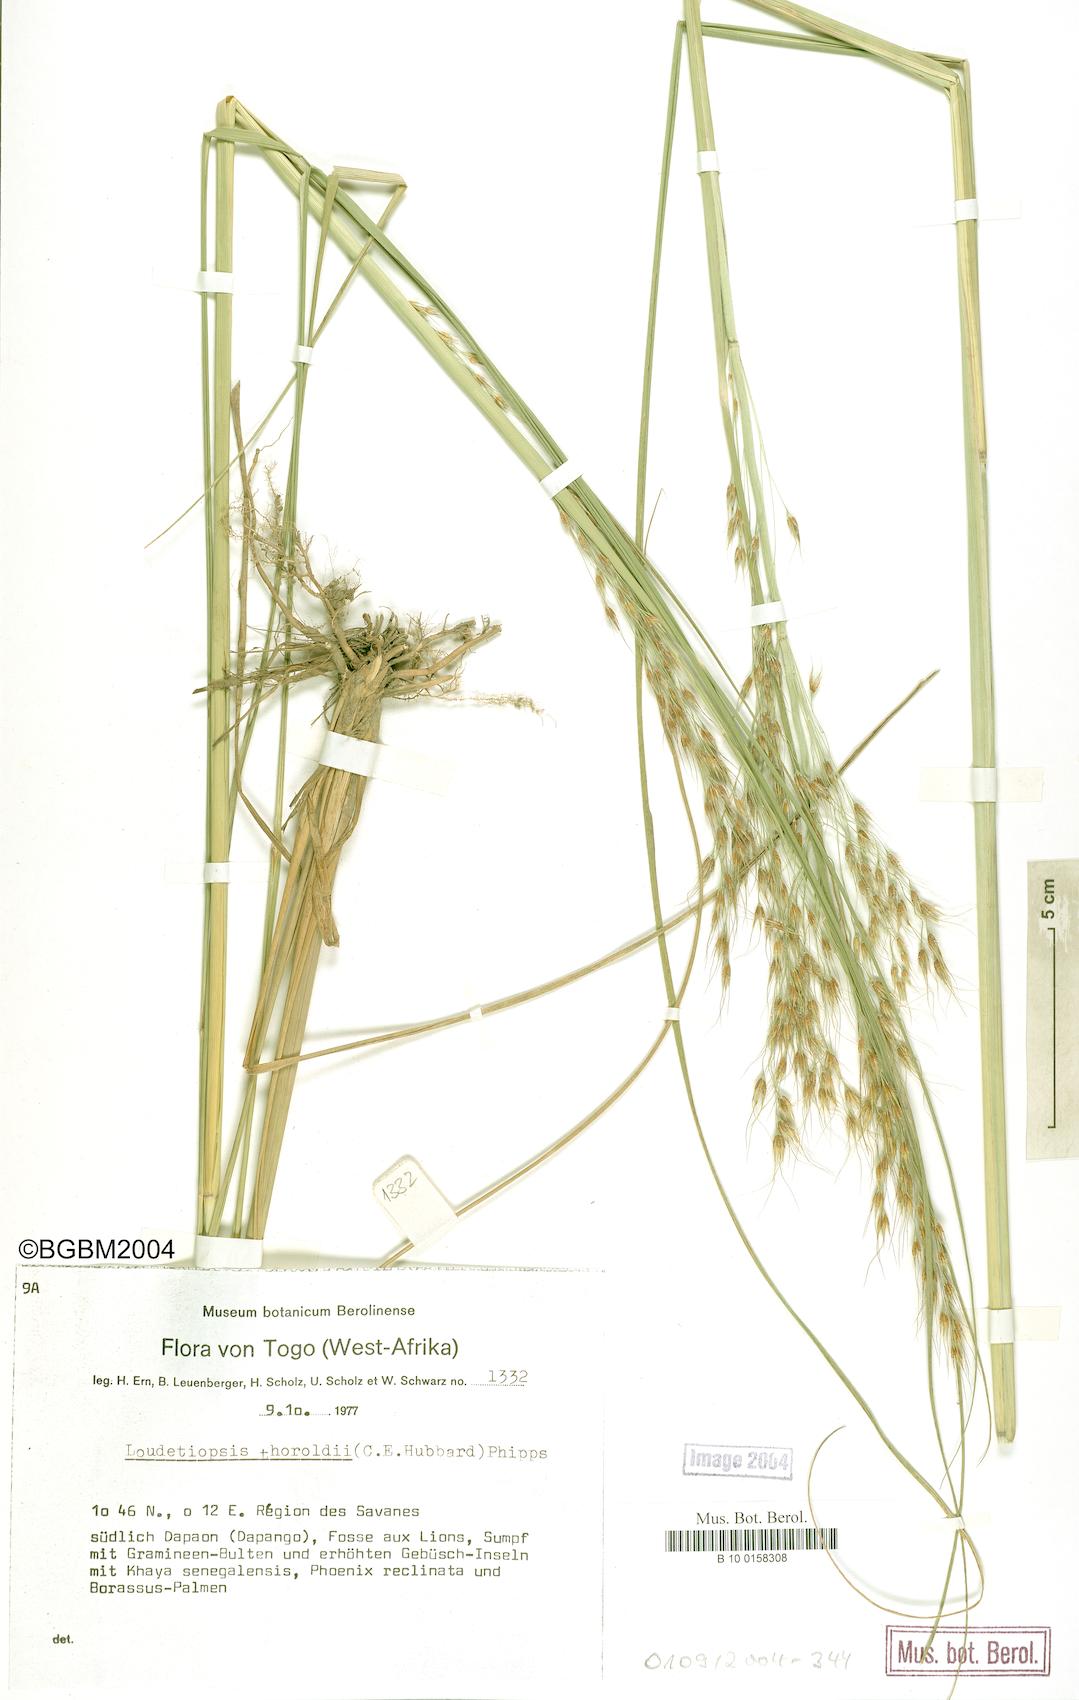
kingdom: Plantae
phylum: Tracheophyta
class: Liliopsida
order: Poales
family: Poaceae
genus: Loudetiopsis
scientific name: Loudetiopsis thoroldii
